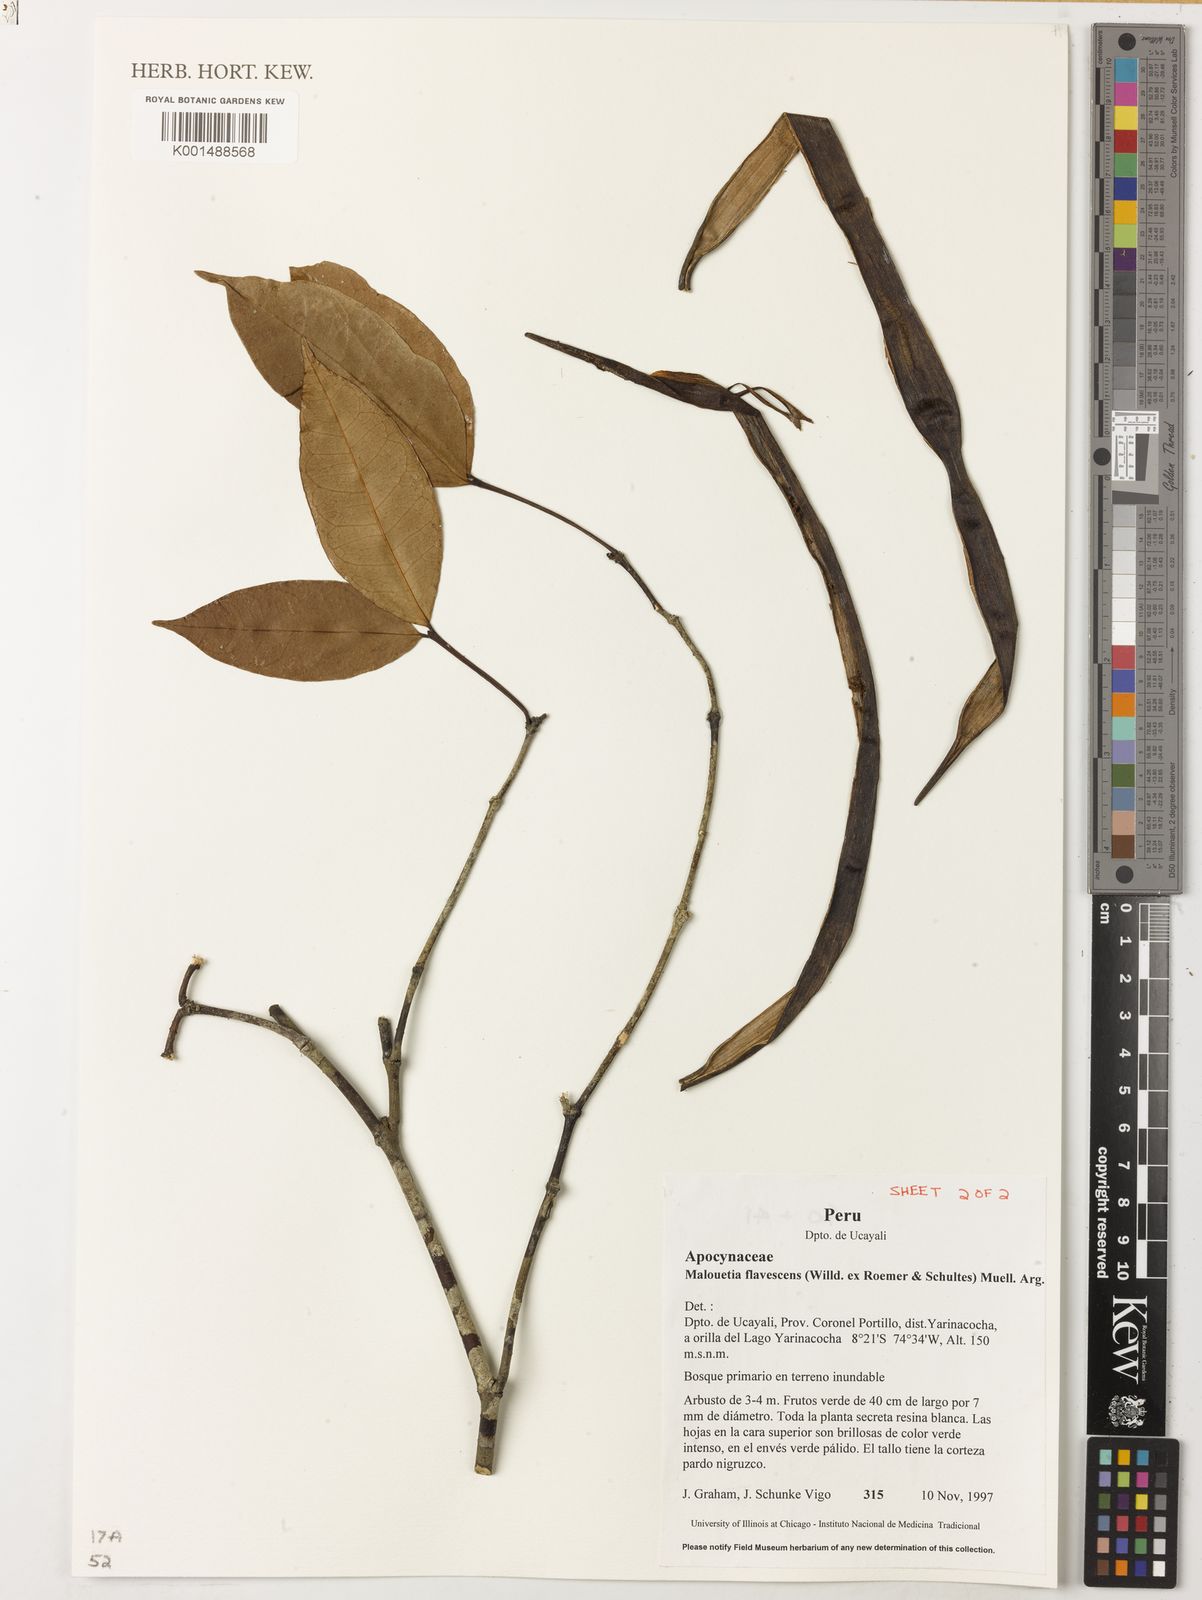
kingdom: Plantae
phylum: Tracheophyta
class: Magnoliopsida
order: Gentianales
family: Apocynaceae
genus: Malouetia
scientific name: Malouetia flavescens
